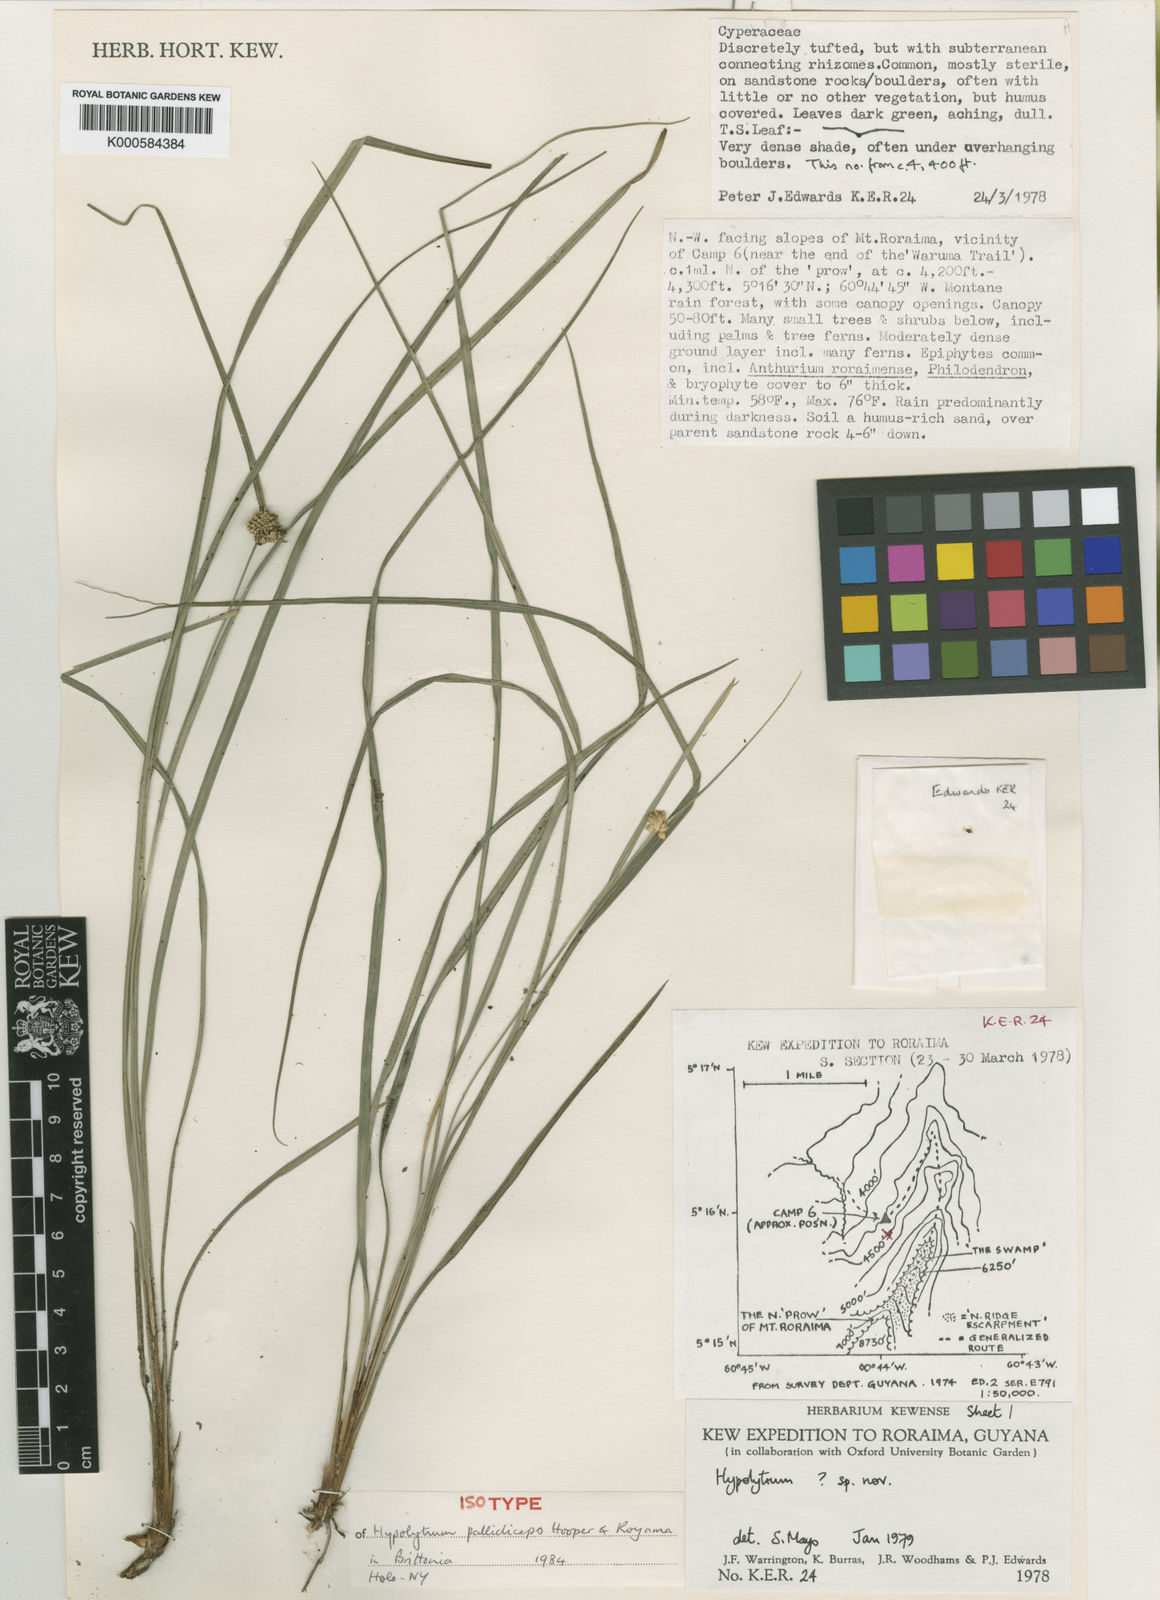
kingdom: Plantae
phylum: Tracheophyta
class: Liliopsida
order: Poales
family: Cyperaceae
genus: Hypolytrum
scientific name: Hypolytrum pallidiceps
